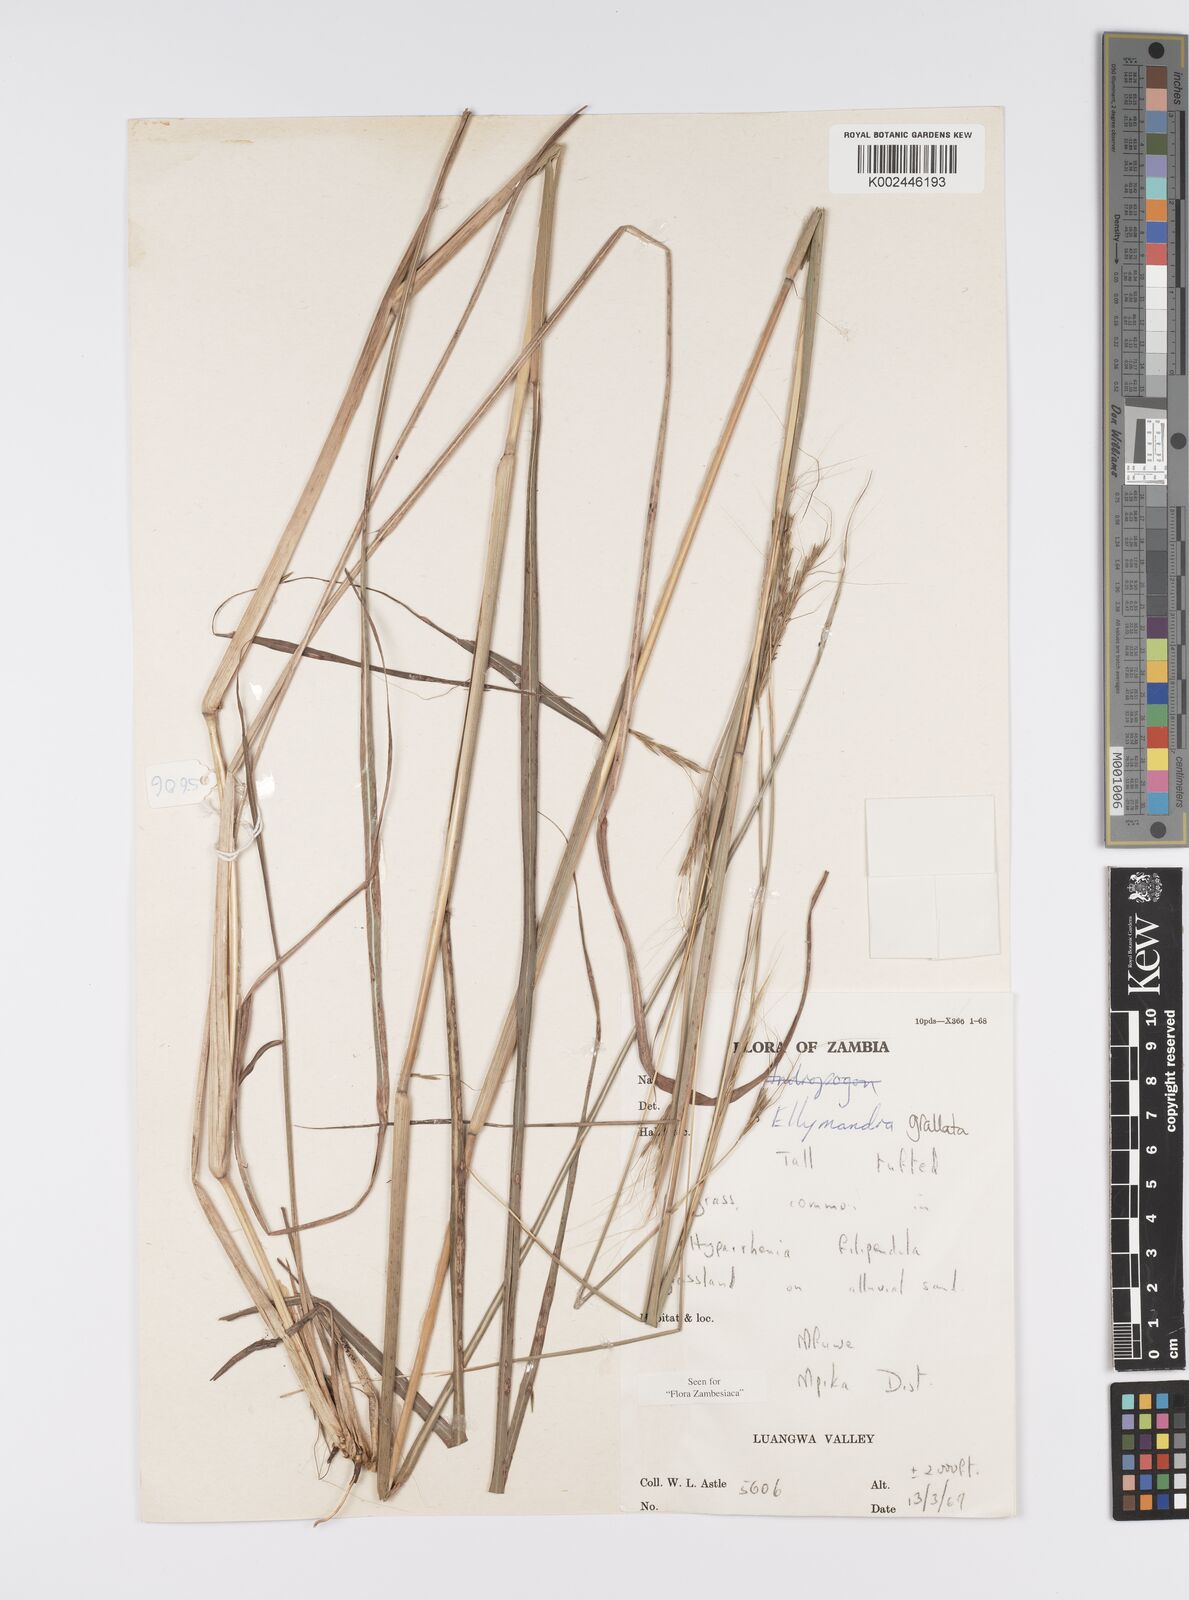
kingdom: Plantae
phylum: Tracheophyta
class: Liliopsida
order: Poales
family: Poaceae
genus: Elymandra
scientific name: Elymandra grallata
